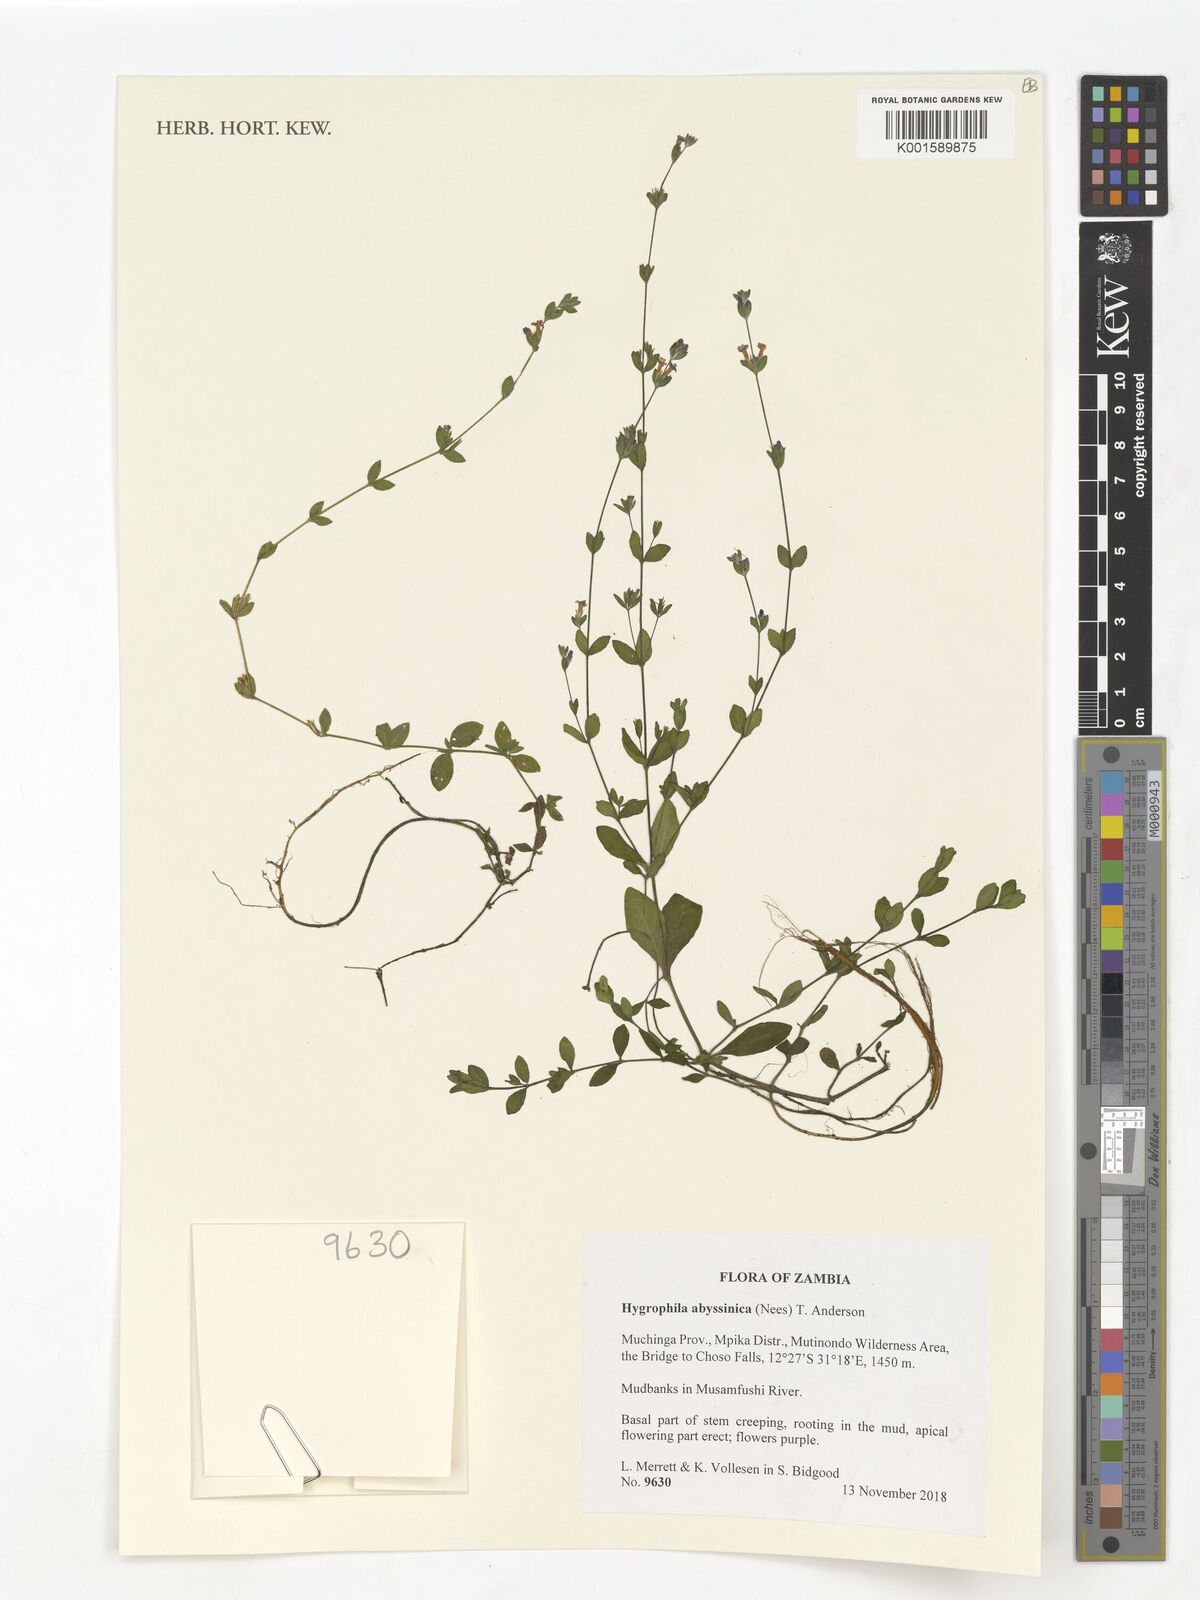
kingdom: Plantae
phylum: Tracheophyta
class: Magnoliopsida
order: Lamiales
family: Acanthaceae
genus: Hygrophila
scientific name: Hygrophila abyssinica
